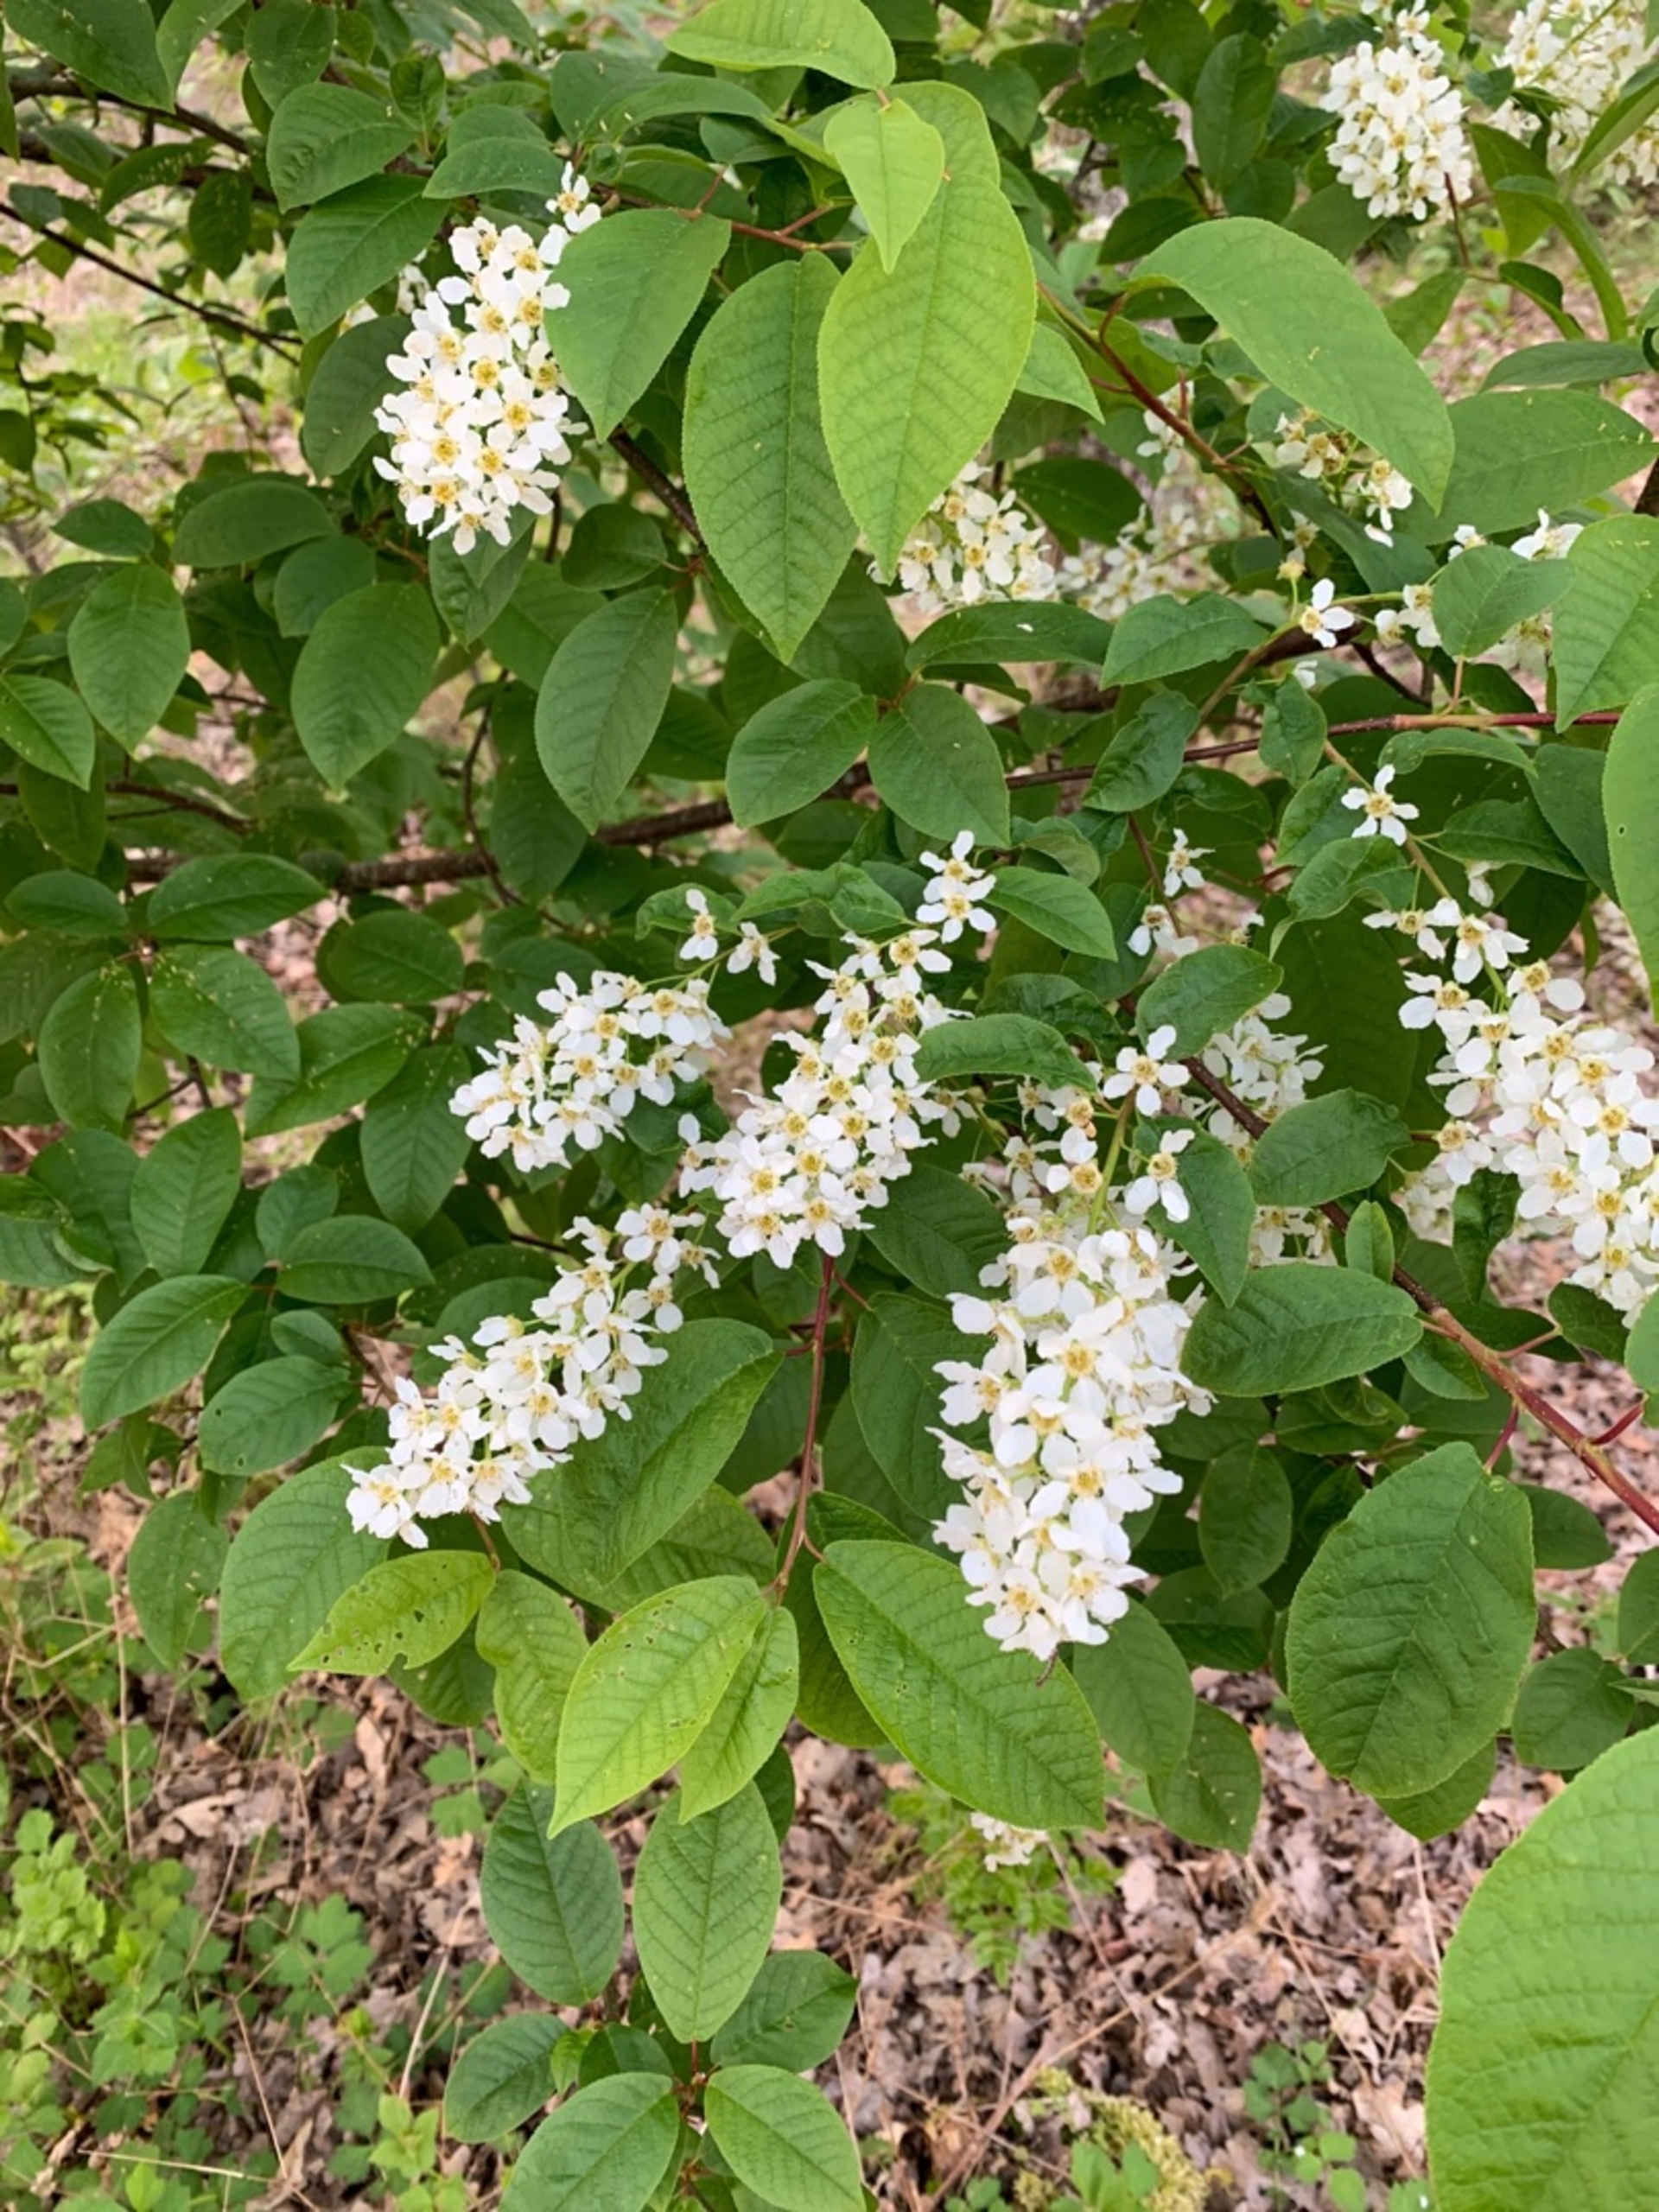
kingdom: Plantae
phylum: Tracheophyta
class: Magnoliopsida
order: Rosales
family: Rosaceae
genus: Prunus
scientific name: Prunus padus
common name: Almindelig hæg
